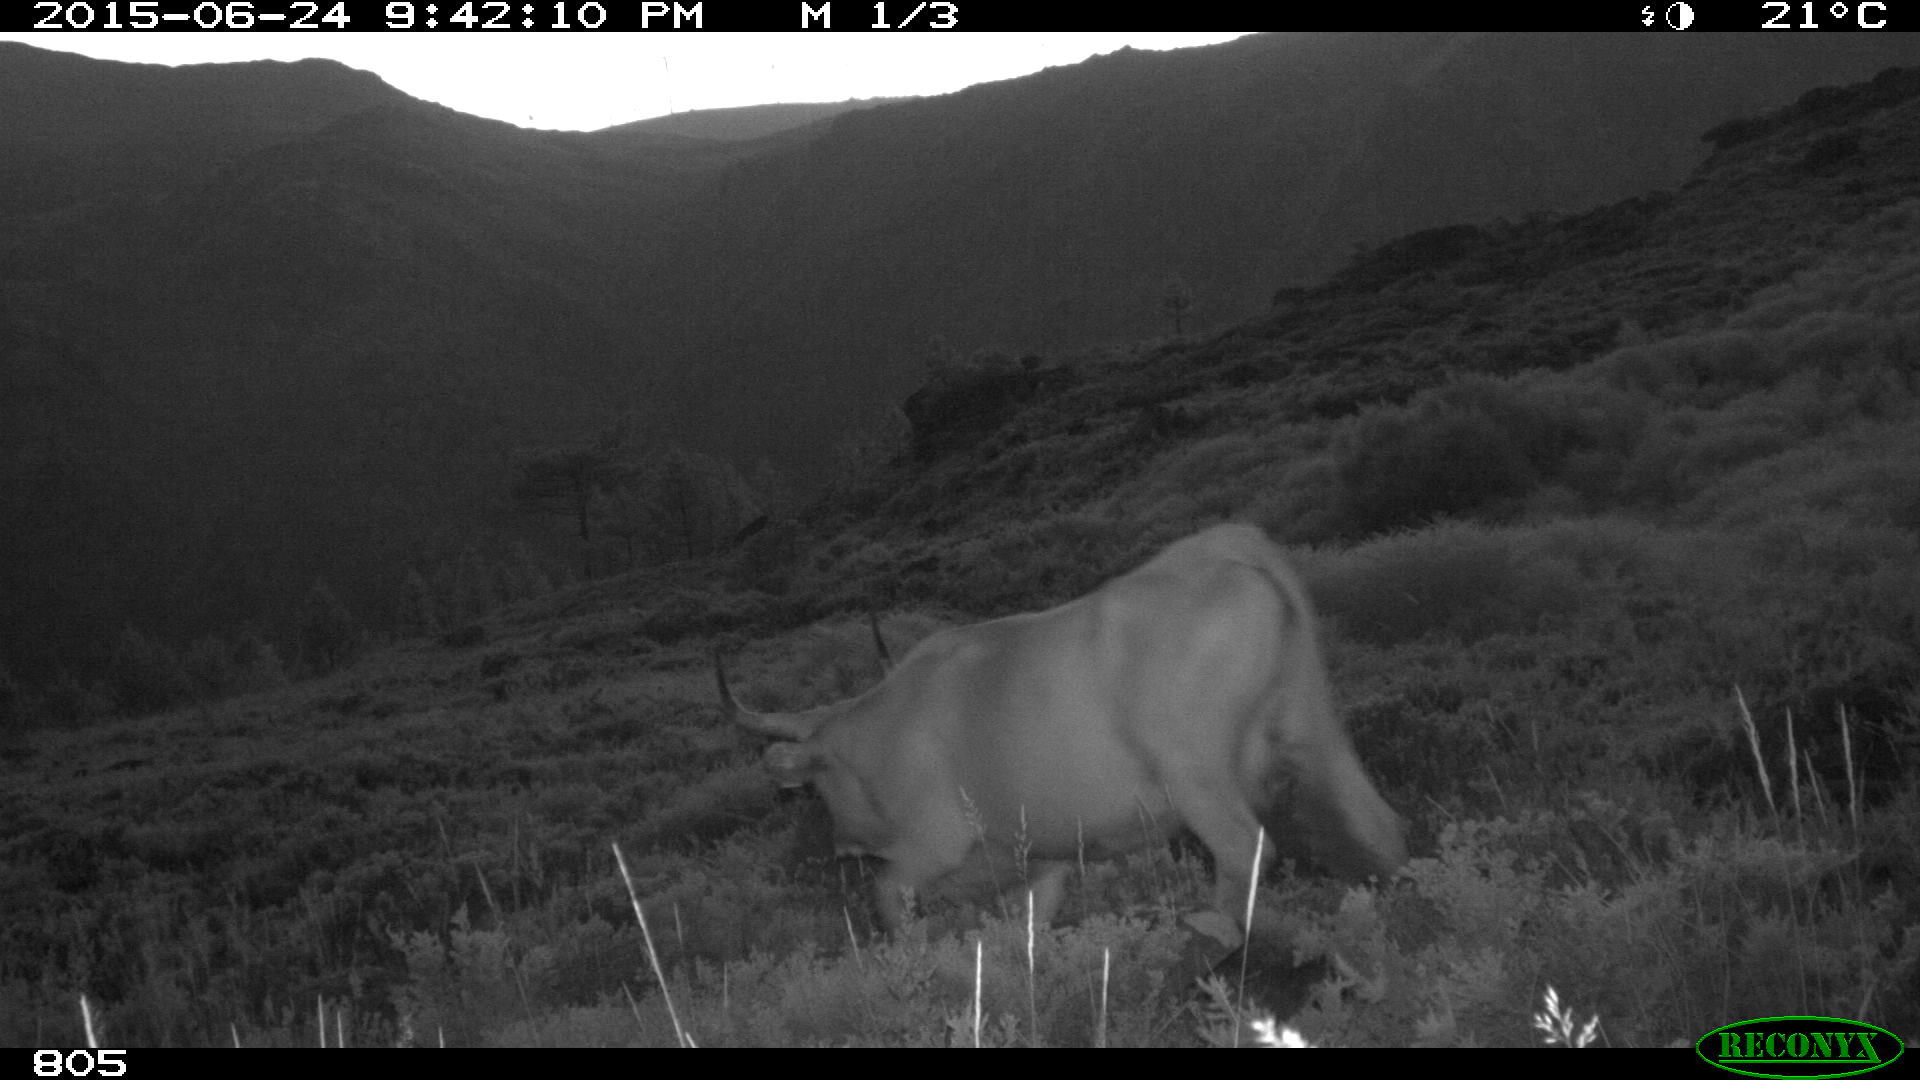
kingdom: Animalia
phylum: Chordata
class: Mammalia
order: Artiodactyla
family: Bovidae
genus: Bos
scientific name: Bos taurus
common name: Domesticated cattle
